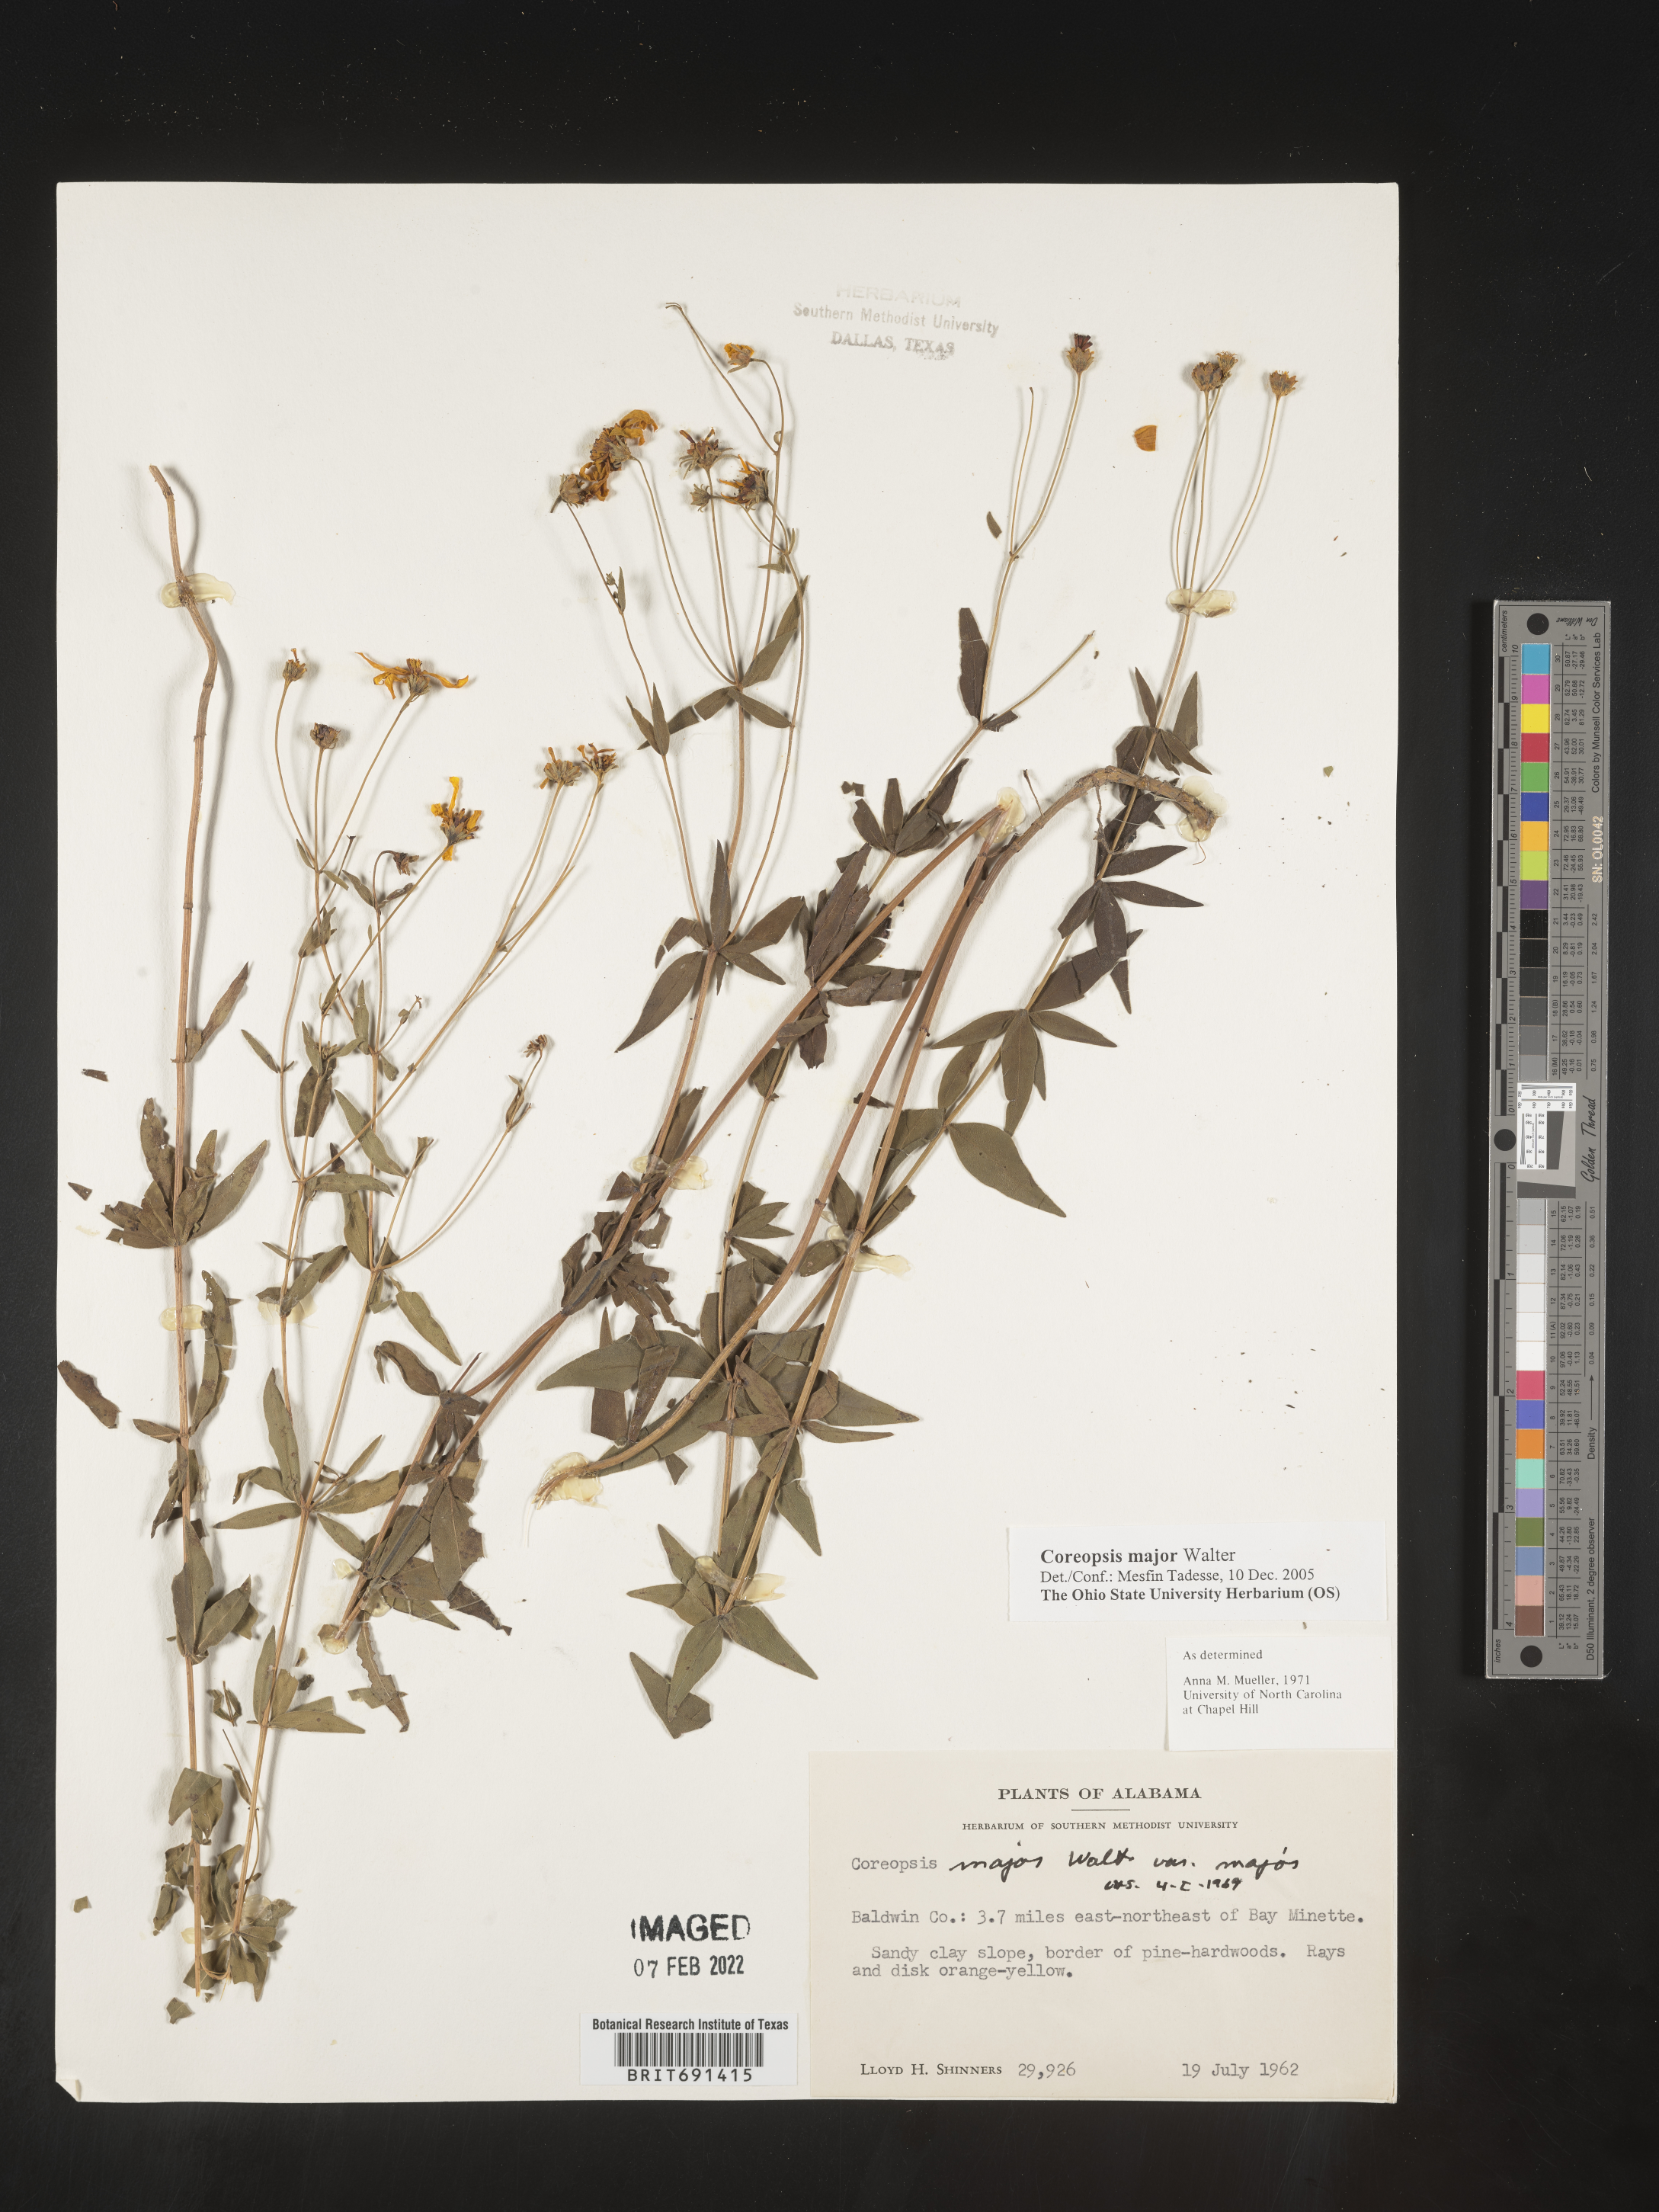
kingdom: Plantae
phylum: Tracheophyta
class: Magnoliopsida
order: Asterales
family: Asteraceae
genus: Coreopsis
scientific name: Coreopsis major
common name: Forest tickseed
